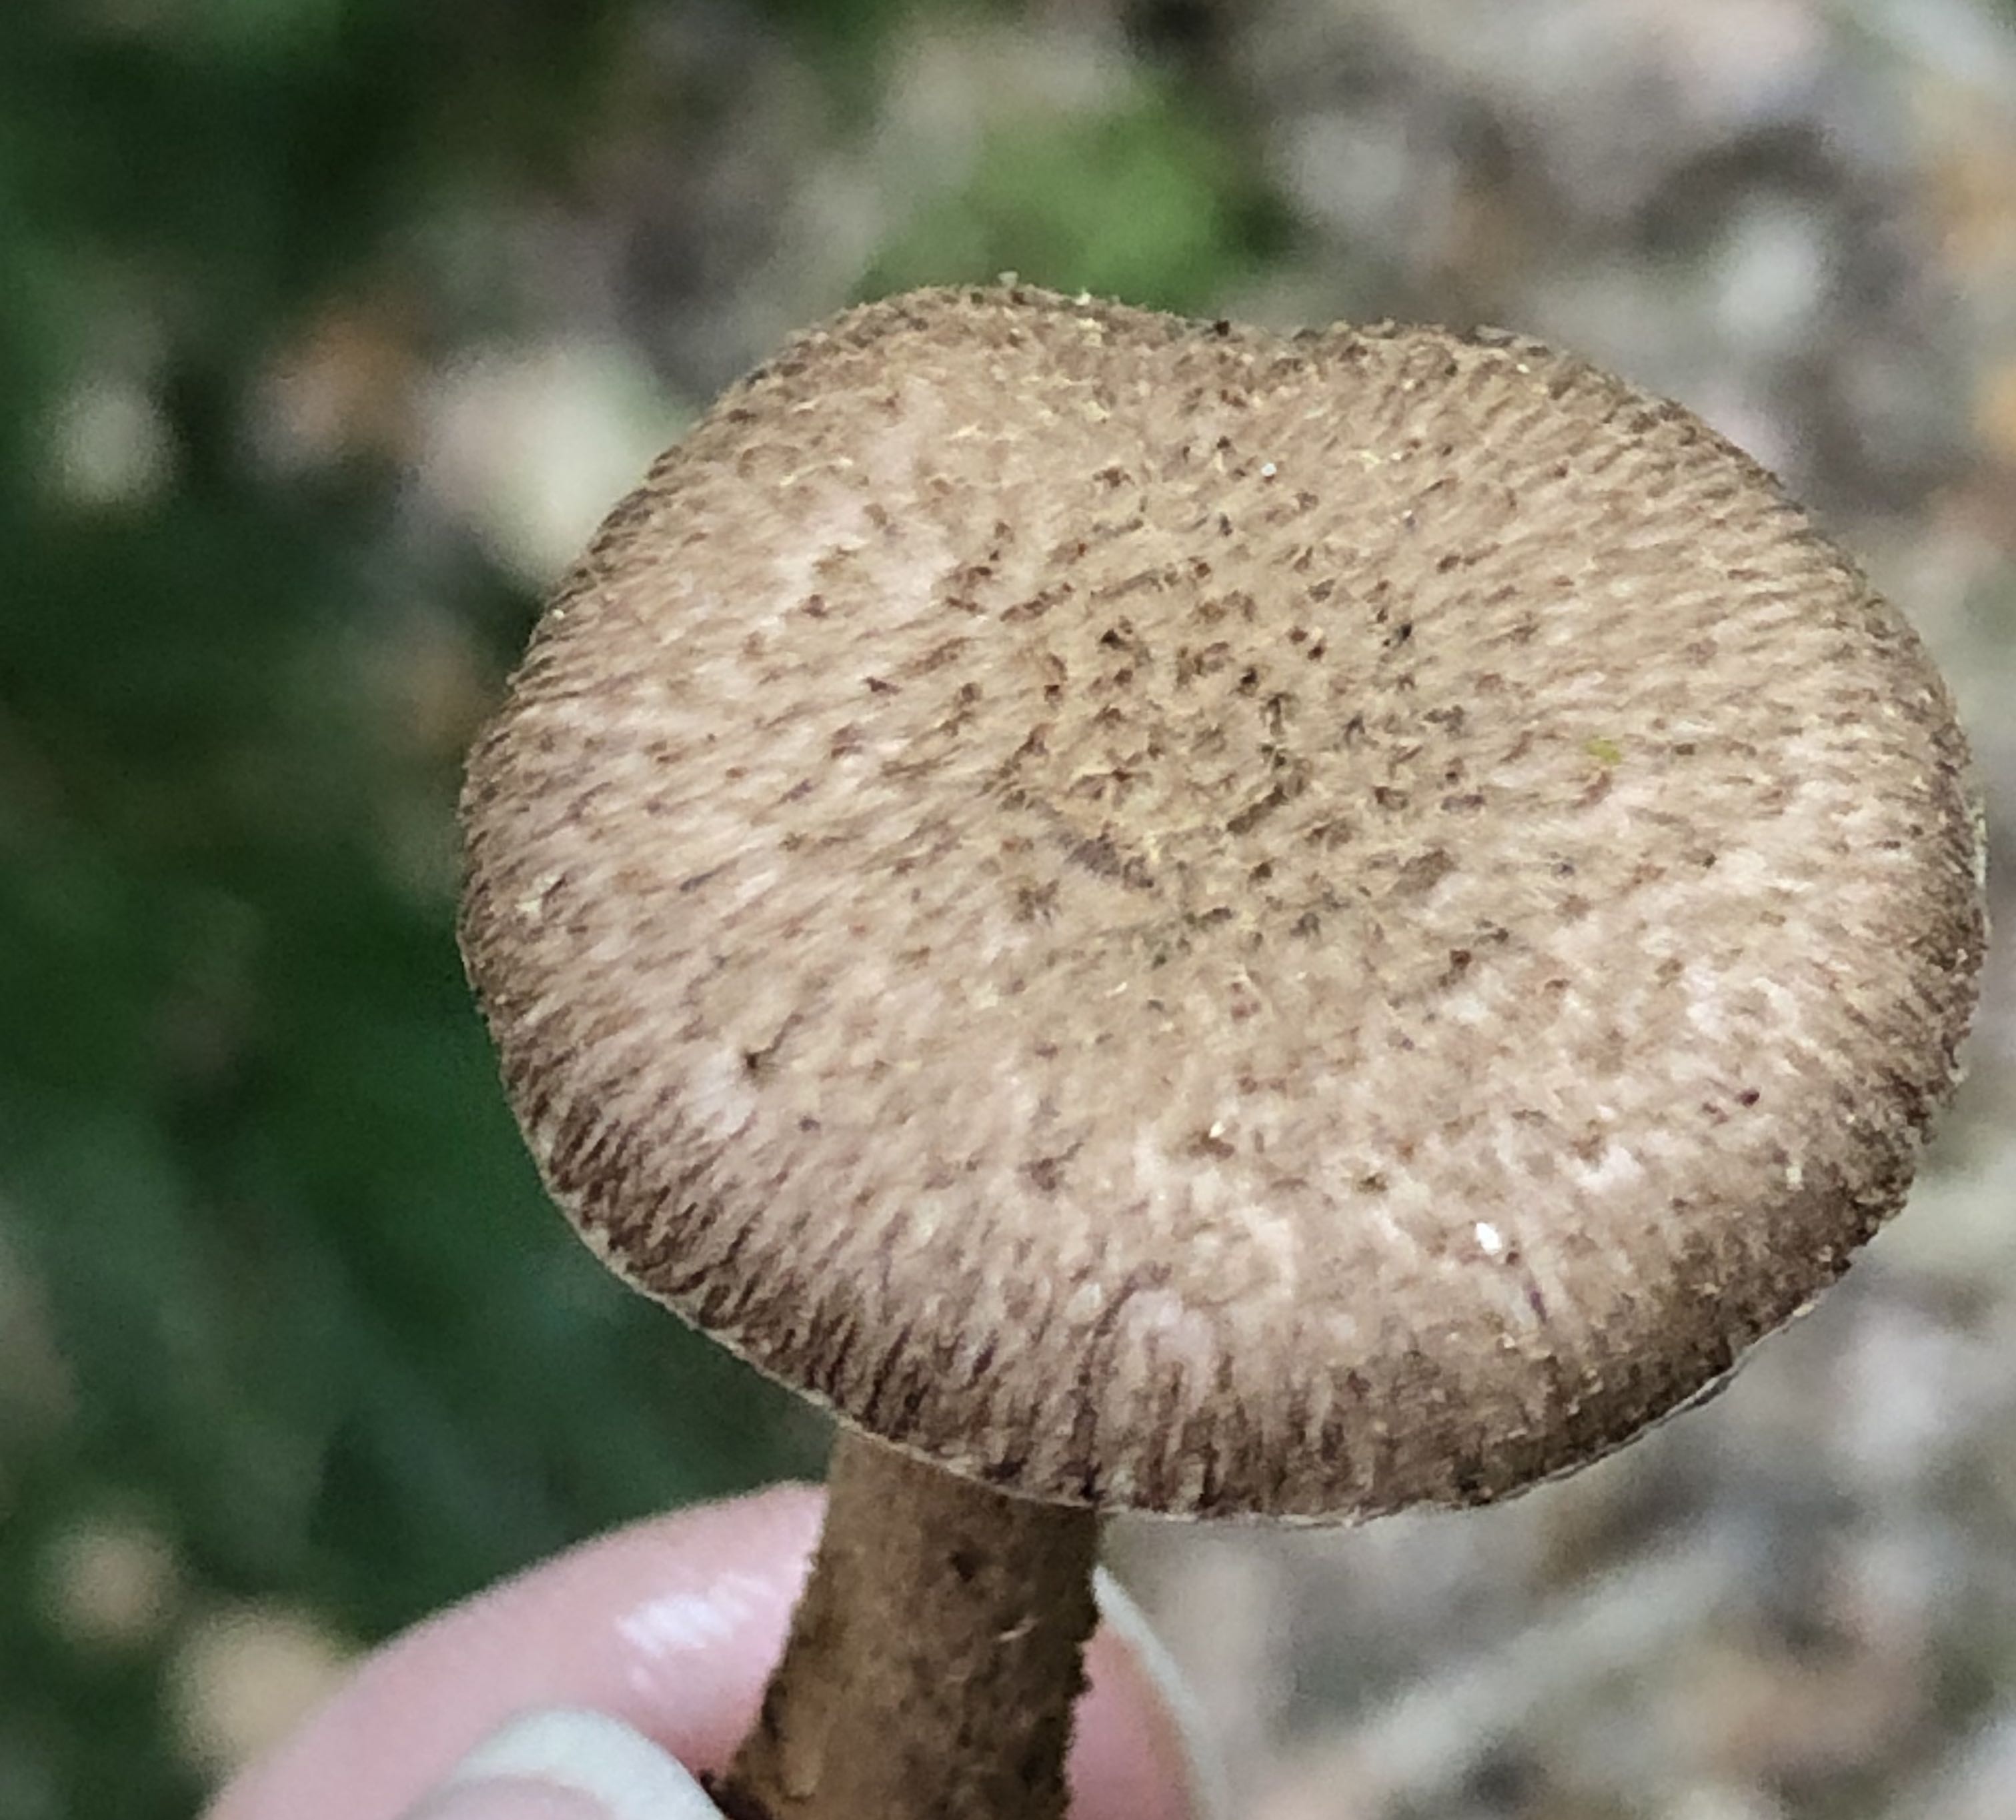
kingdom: Fungi
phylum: Basidiomycota
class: Agaricomycetes
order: Agaricales
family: Inocybaceae
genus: Inocybe
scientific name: Inocybe
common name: trævlhat
